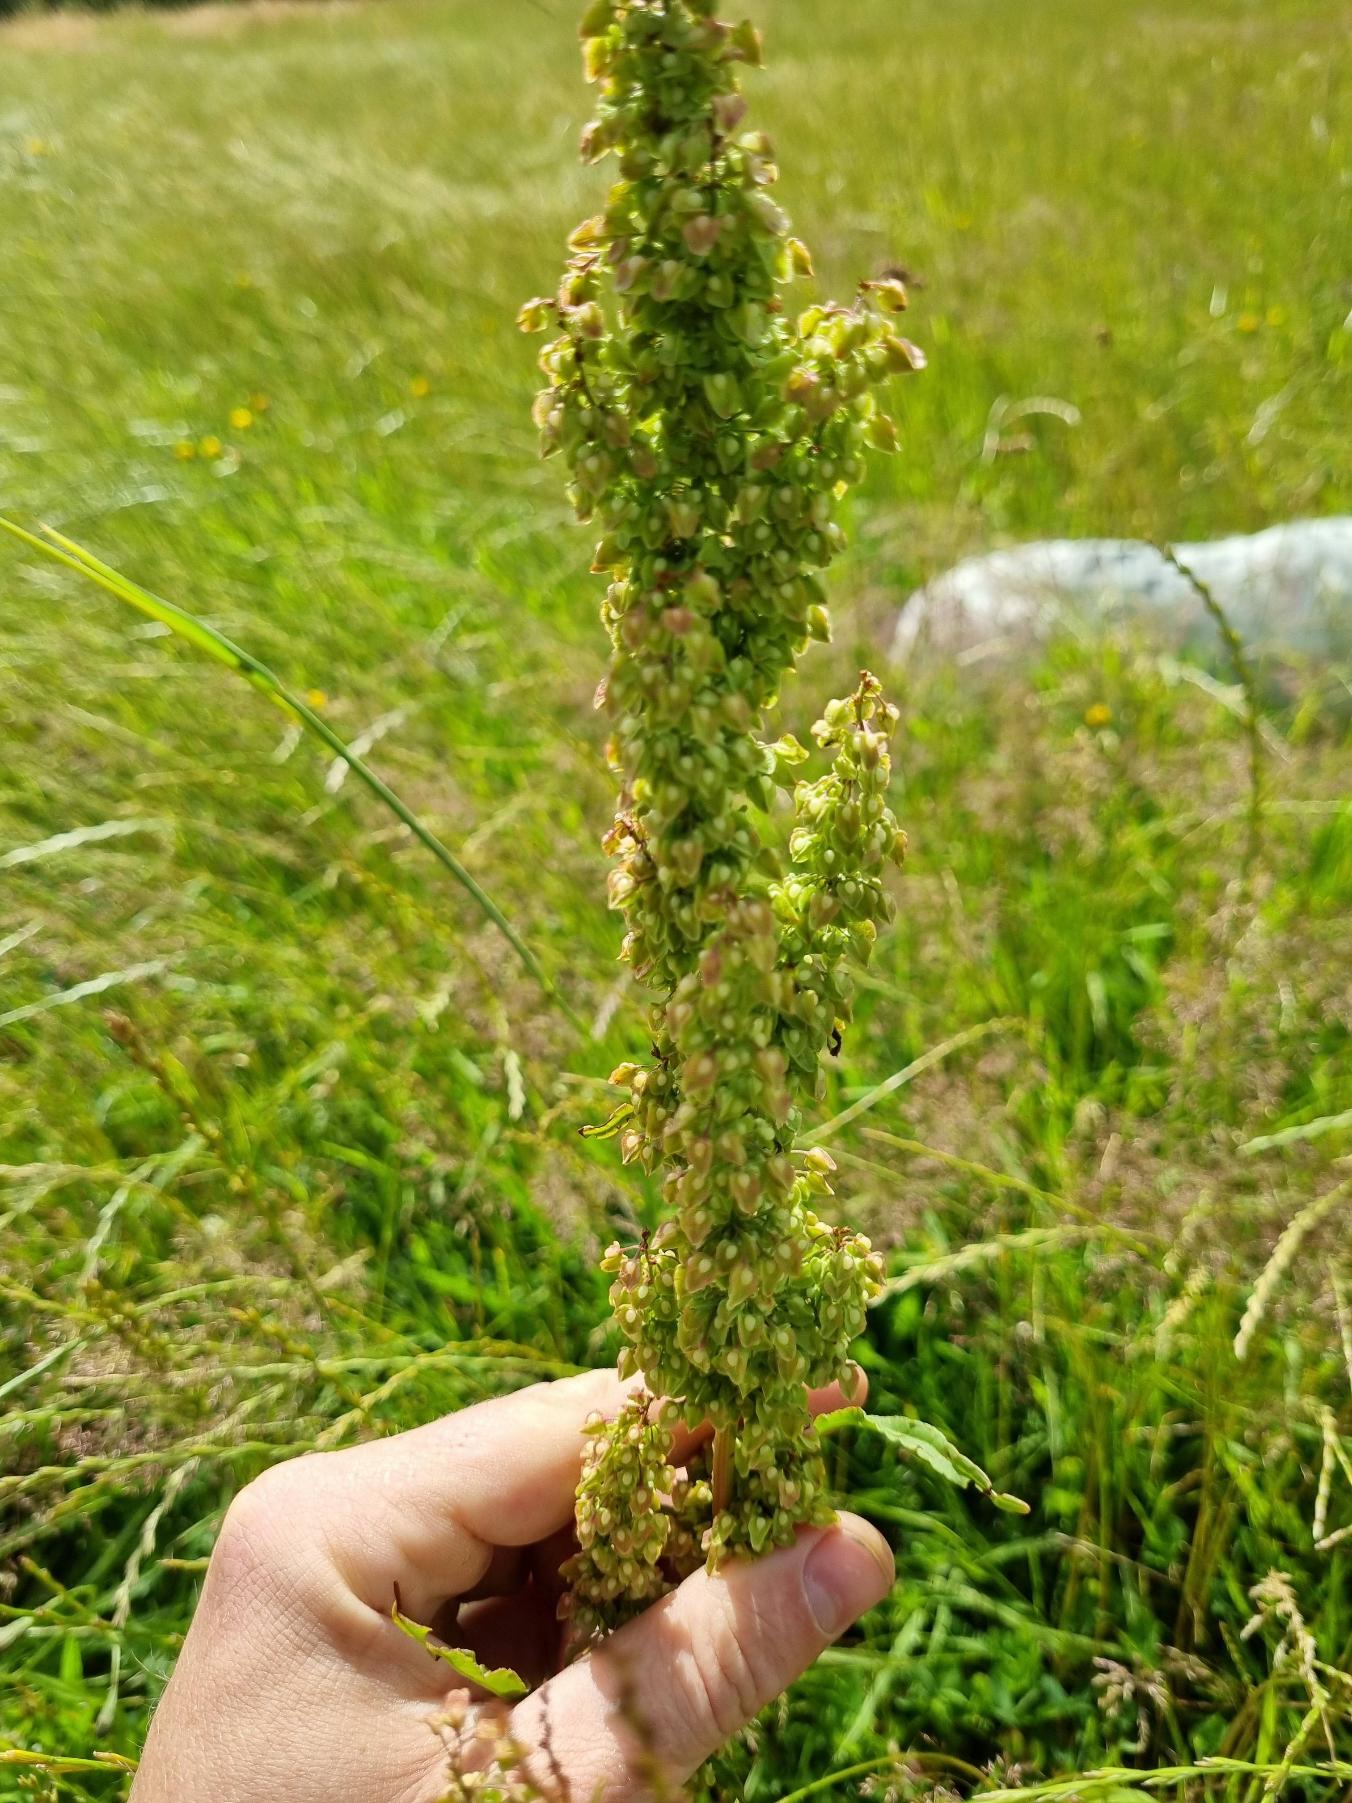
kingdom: Plantae
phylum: Tracheophyta
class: Magnoliopsida
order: Caryophyllales
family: Polygonaceae
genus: Rumex
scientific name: Rumex crispus
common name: Kruset skræppe
